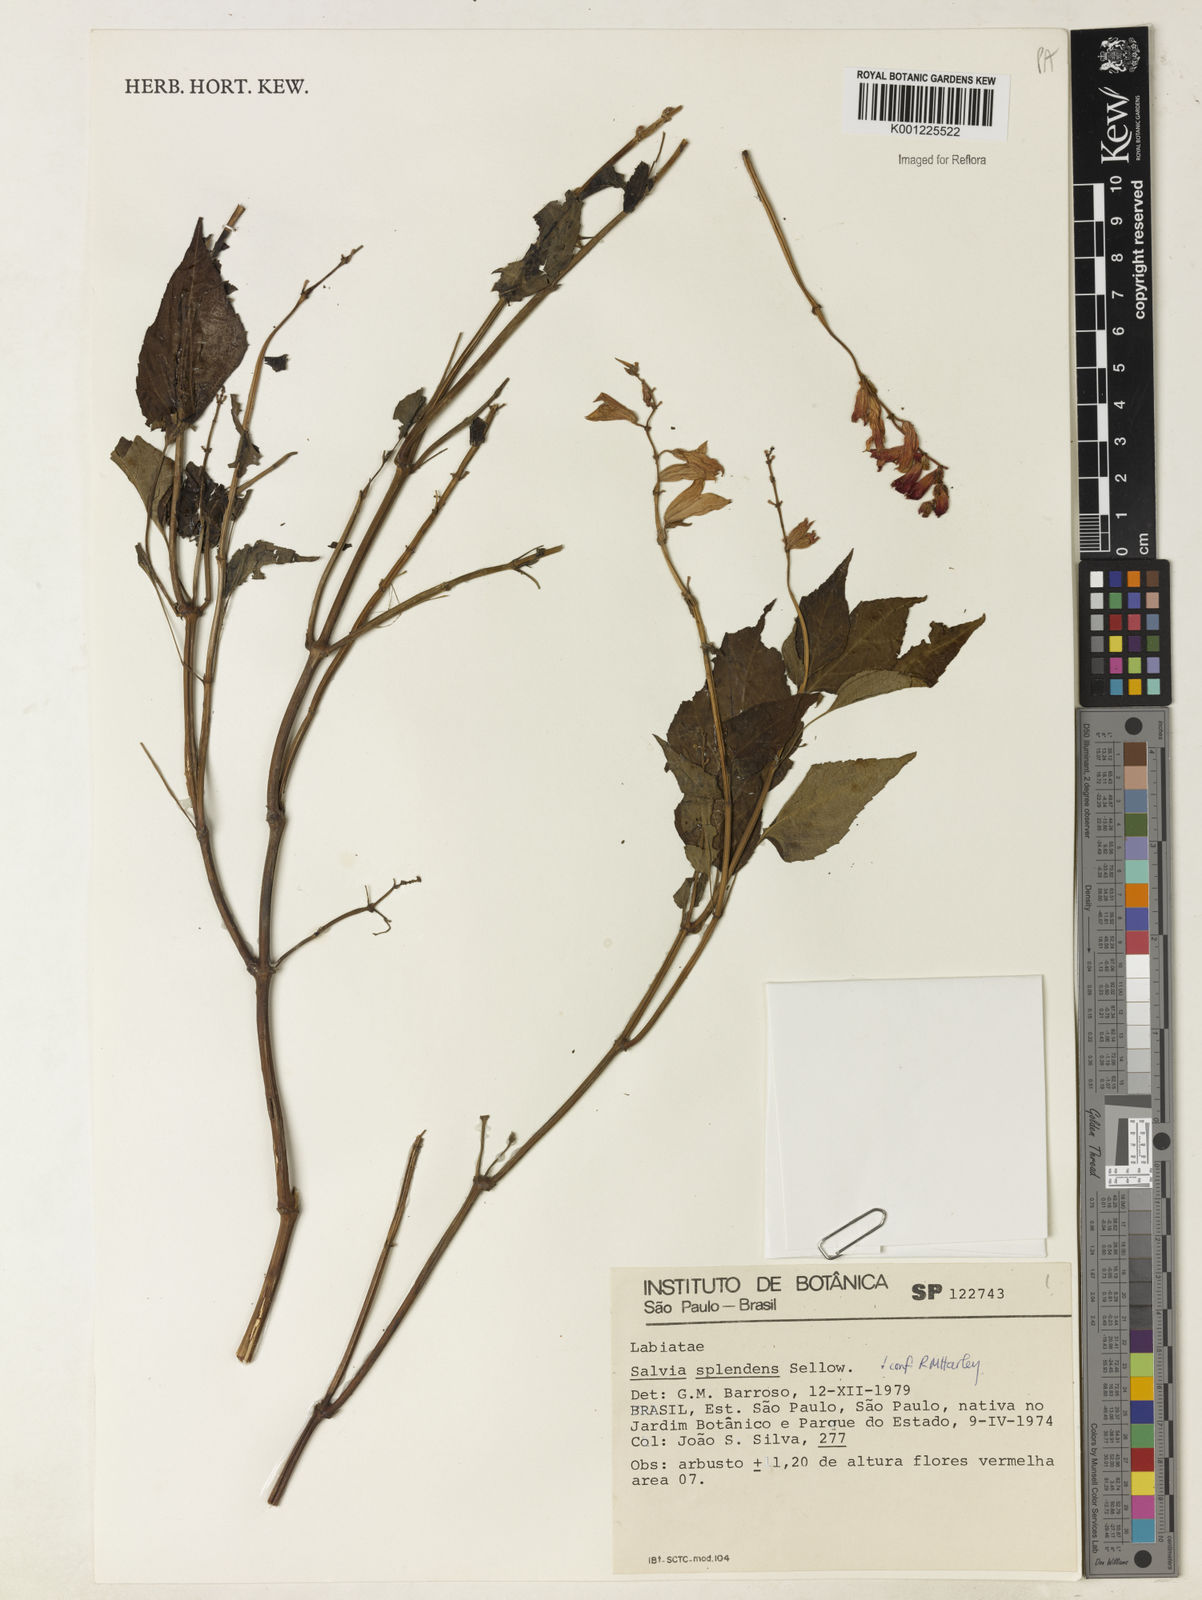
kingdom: Plantae
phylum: Tracheophyta
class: Magnoliopsida
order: Lamiales
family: Lamiaceae
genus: Salvia
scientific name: Salvia
